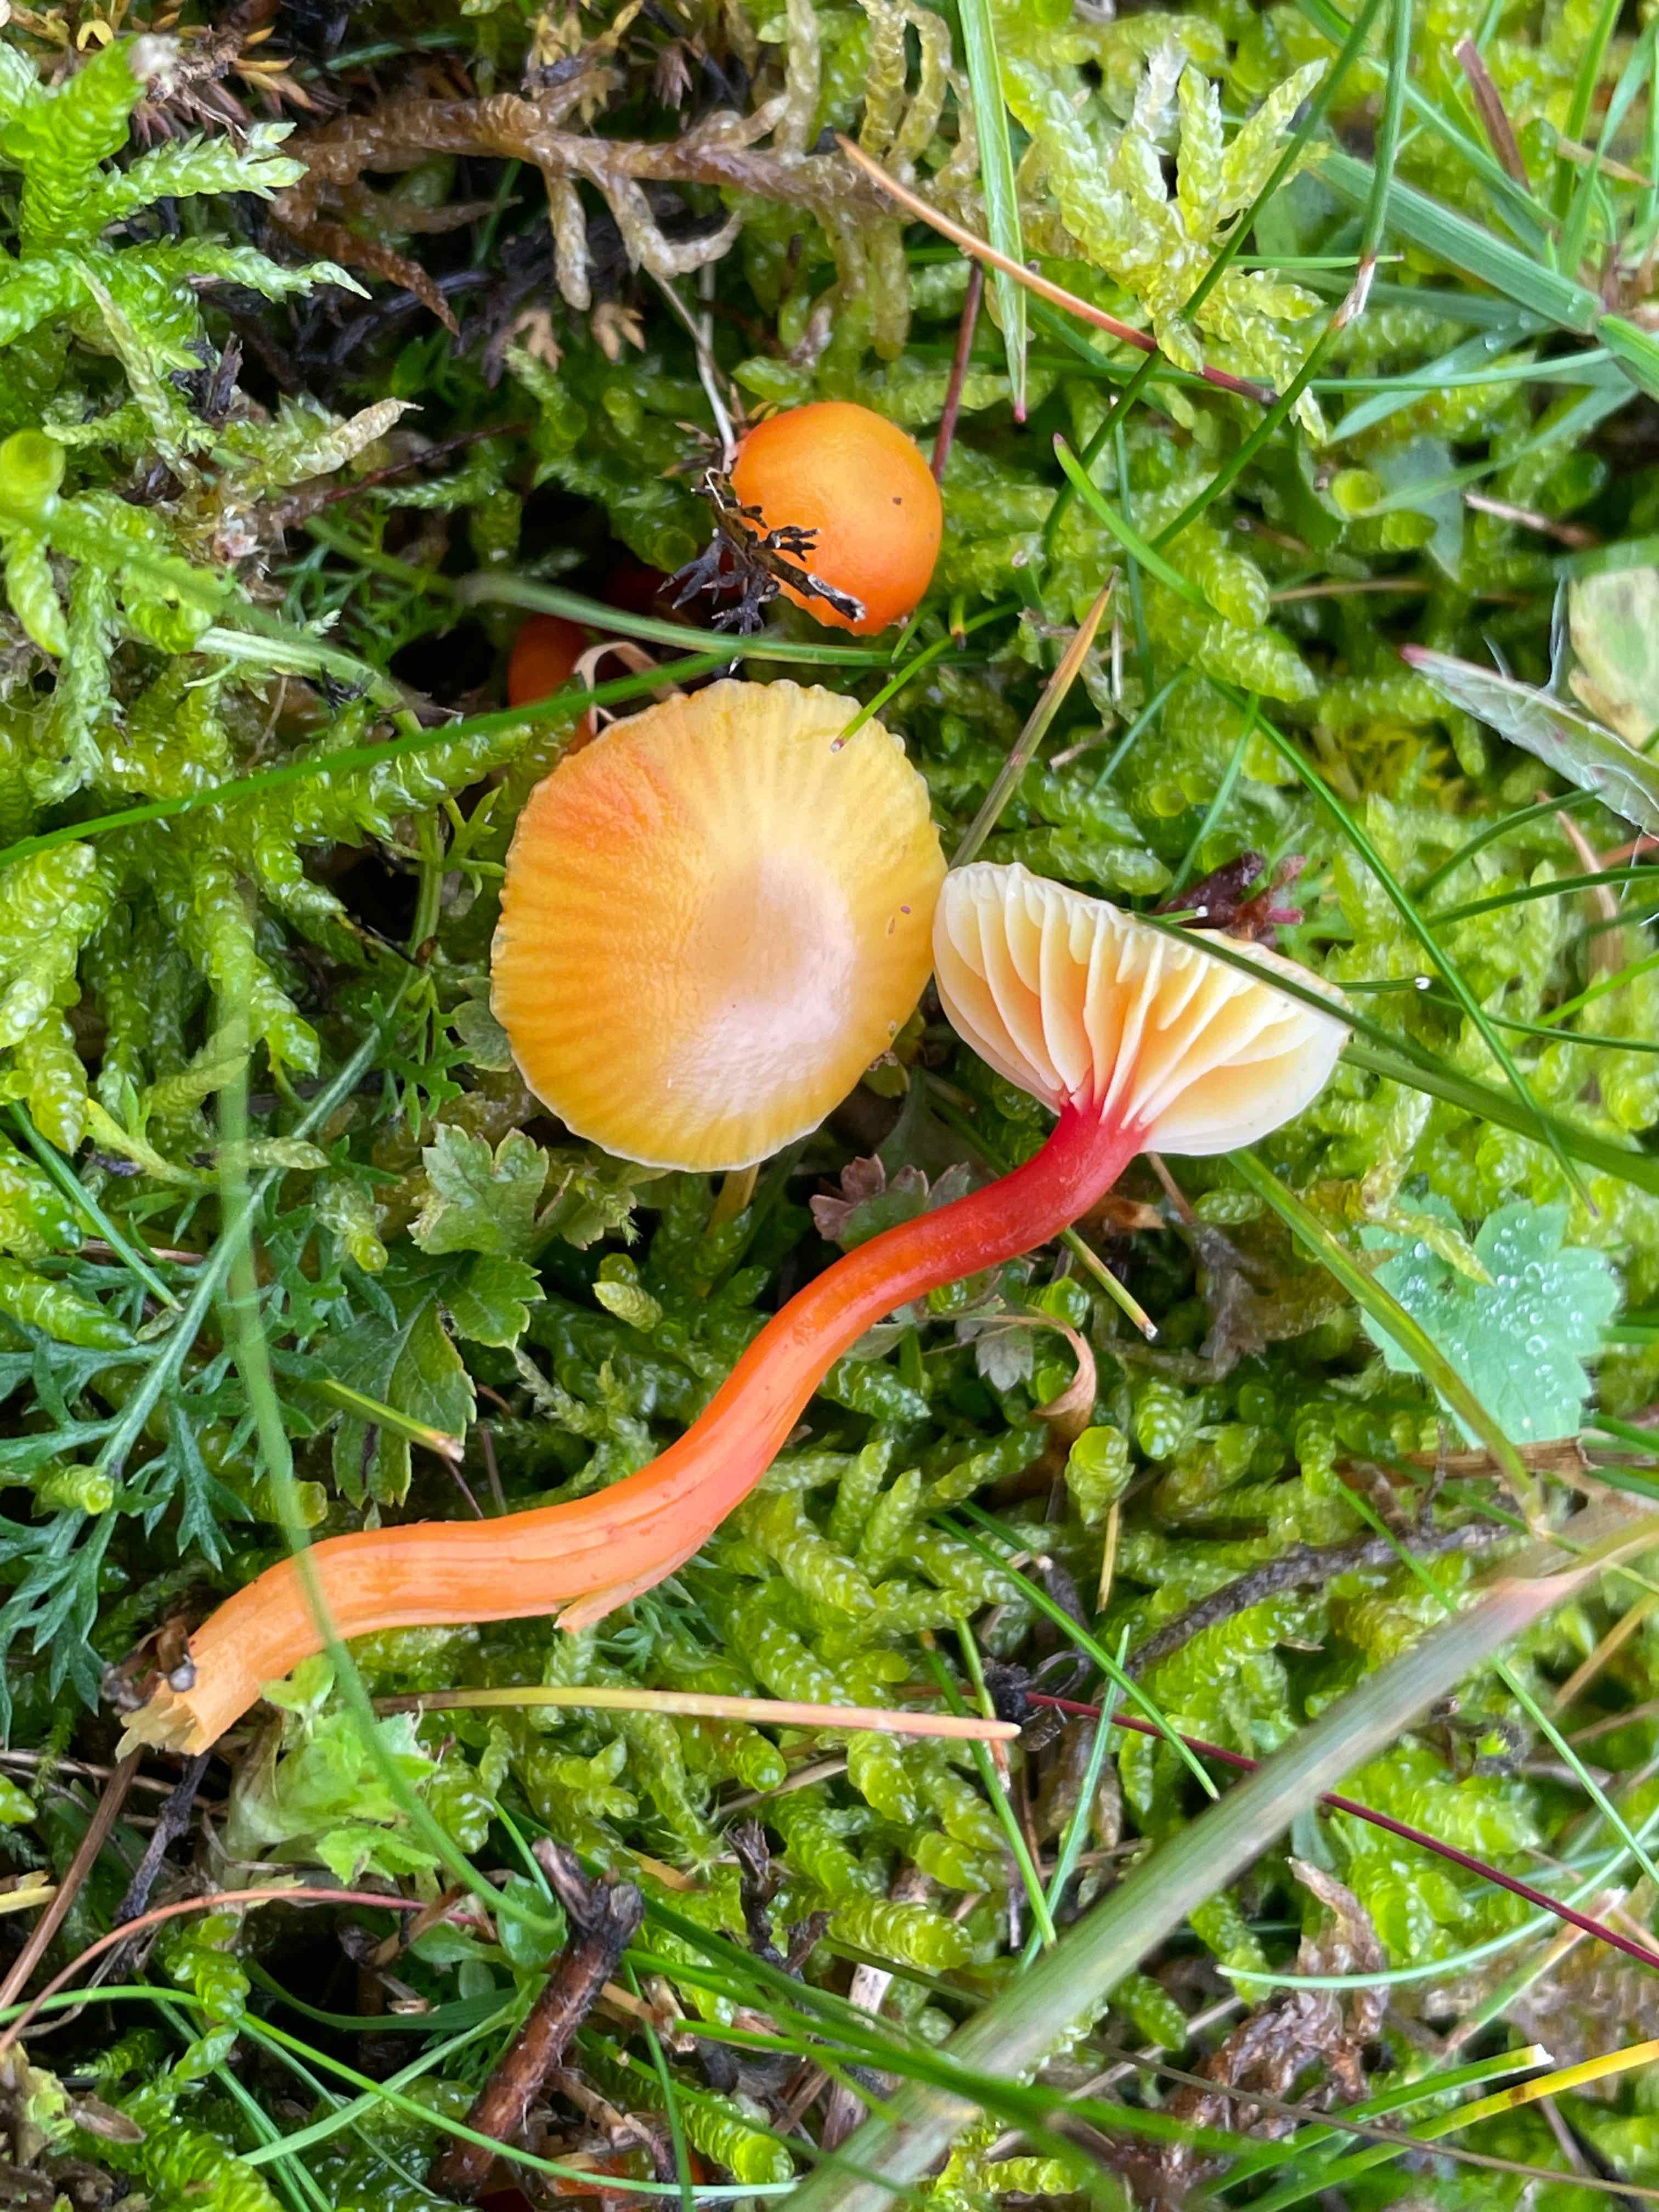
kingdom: Fungi
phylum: Basidiomycota
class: Agaricomycetes
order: Agaricales
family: Hygrophoraceae
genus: Hygrocybe
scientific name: Hygrocybe insipida
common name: liden vokshat
